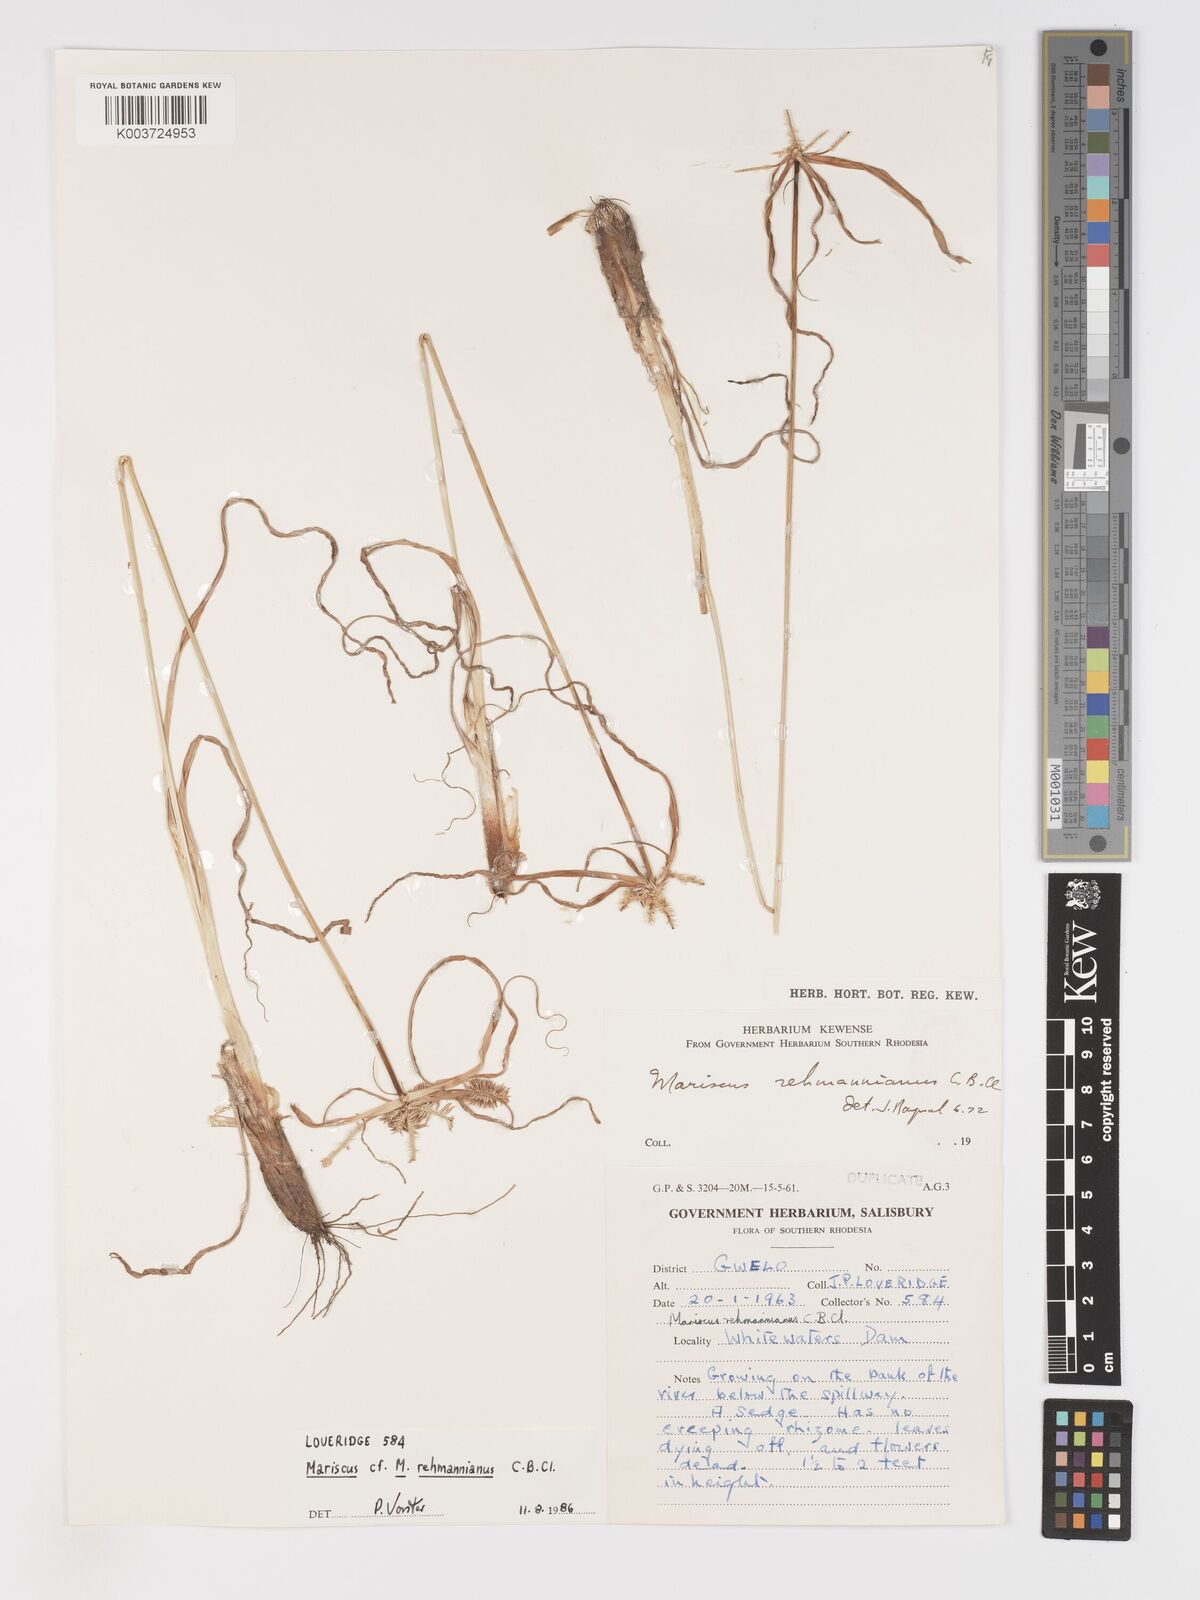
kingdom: Plantae
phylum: Tracheophyta
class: Liliopsida
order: Poales
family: Cyperaceae
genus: Cyperus
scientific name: Cyperus indecorus
